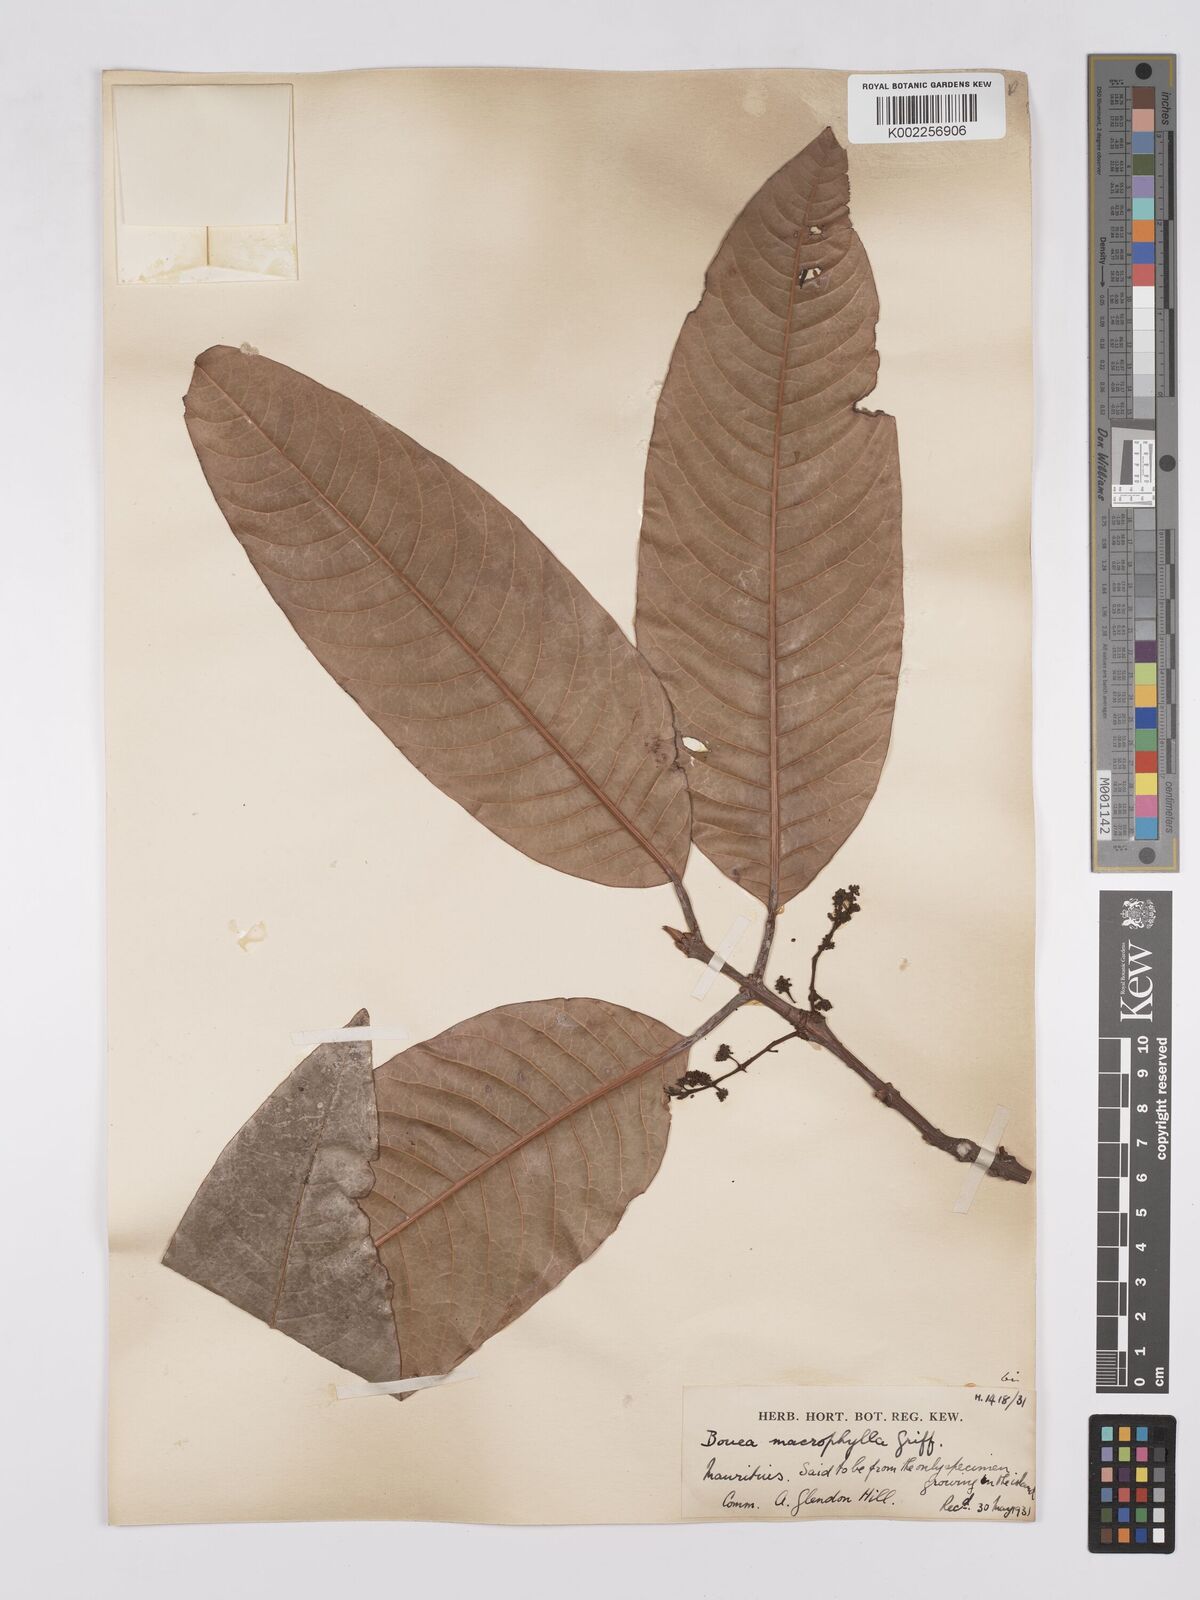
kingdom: Plantae
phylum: Tracheophyta
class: Magnoliopsida
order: Sapindales
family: Anacardiaceae
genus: Bouea
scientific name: Bouea macrophylla
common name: Gandaria
